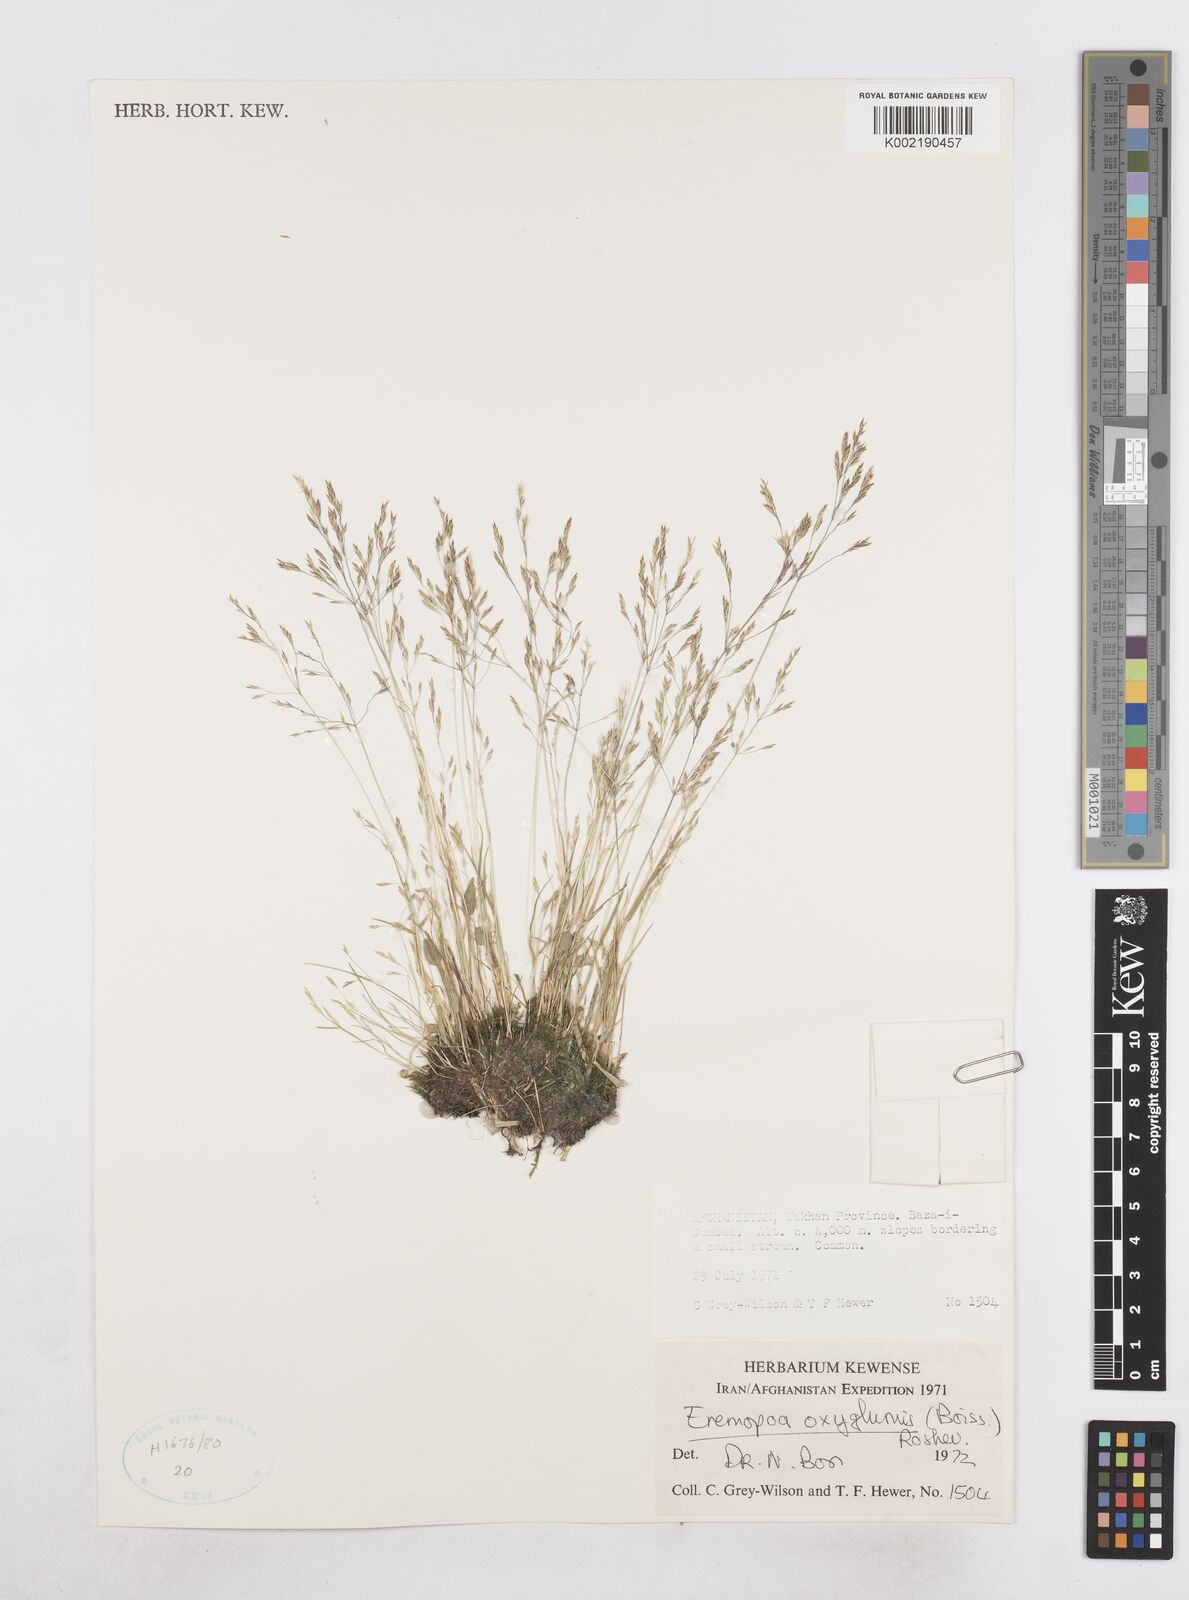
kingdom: Plantae
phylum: Tracheophyta
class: Liliopsida
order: Poales
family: Poaceae
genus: Poa
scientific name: Poa diaphora
